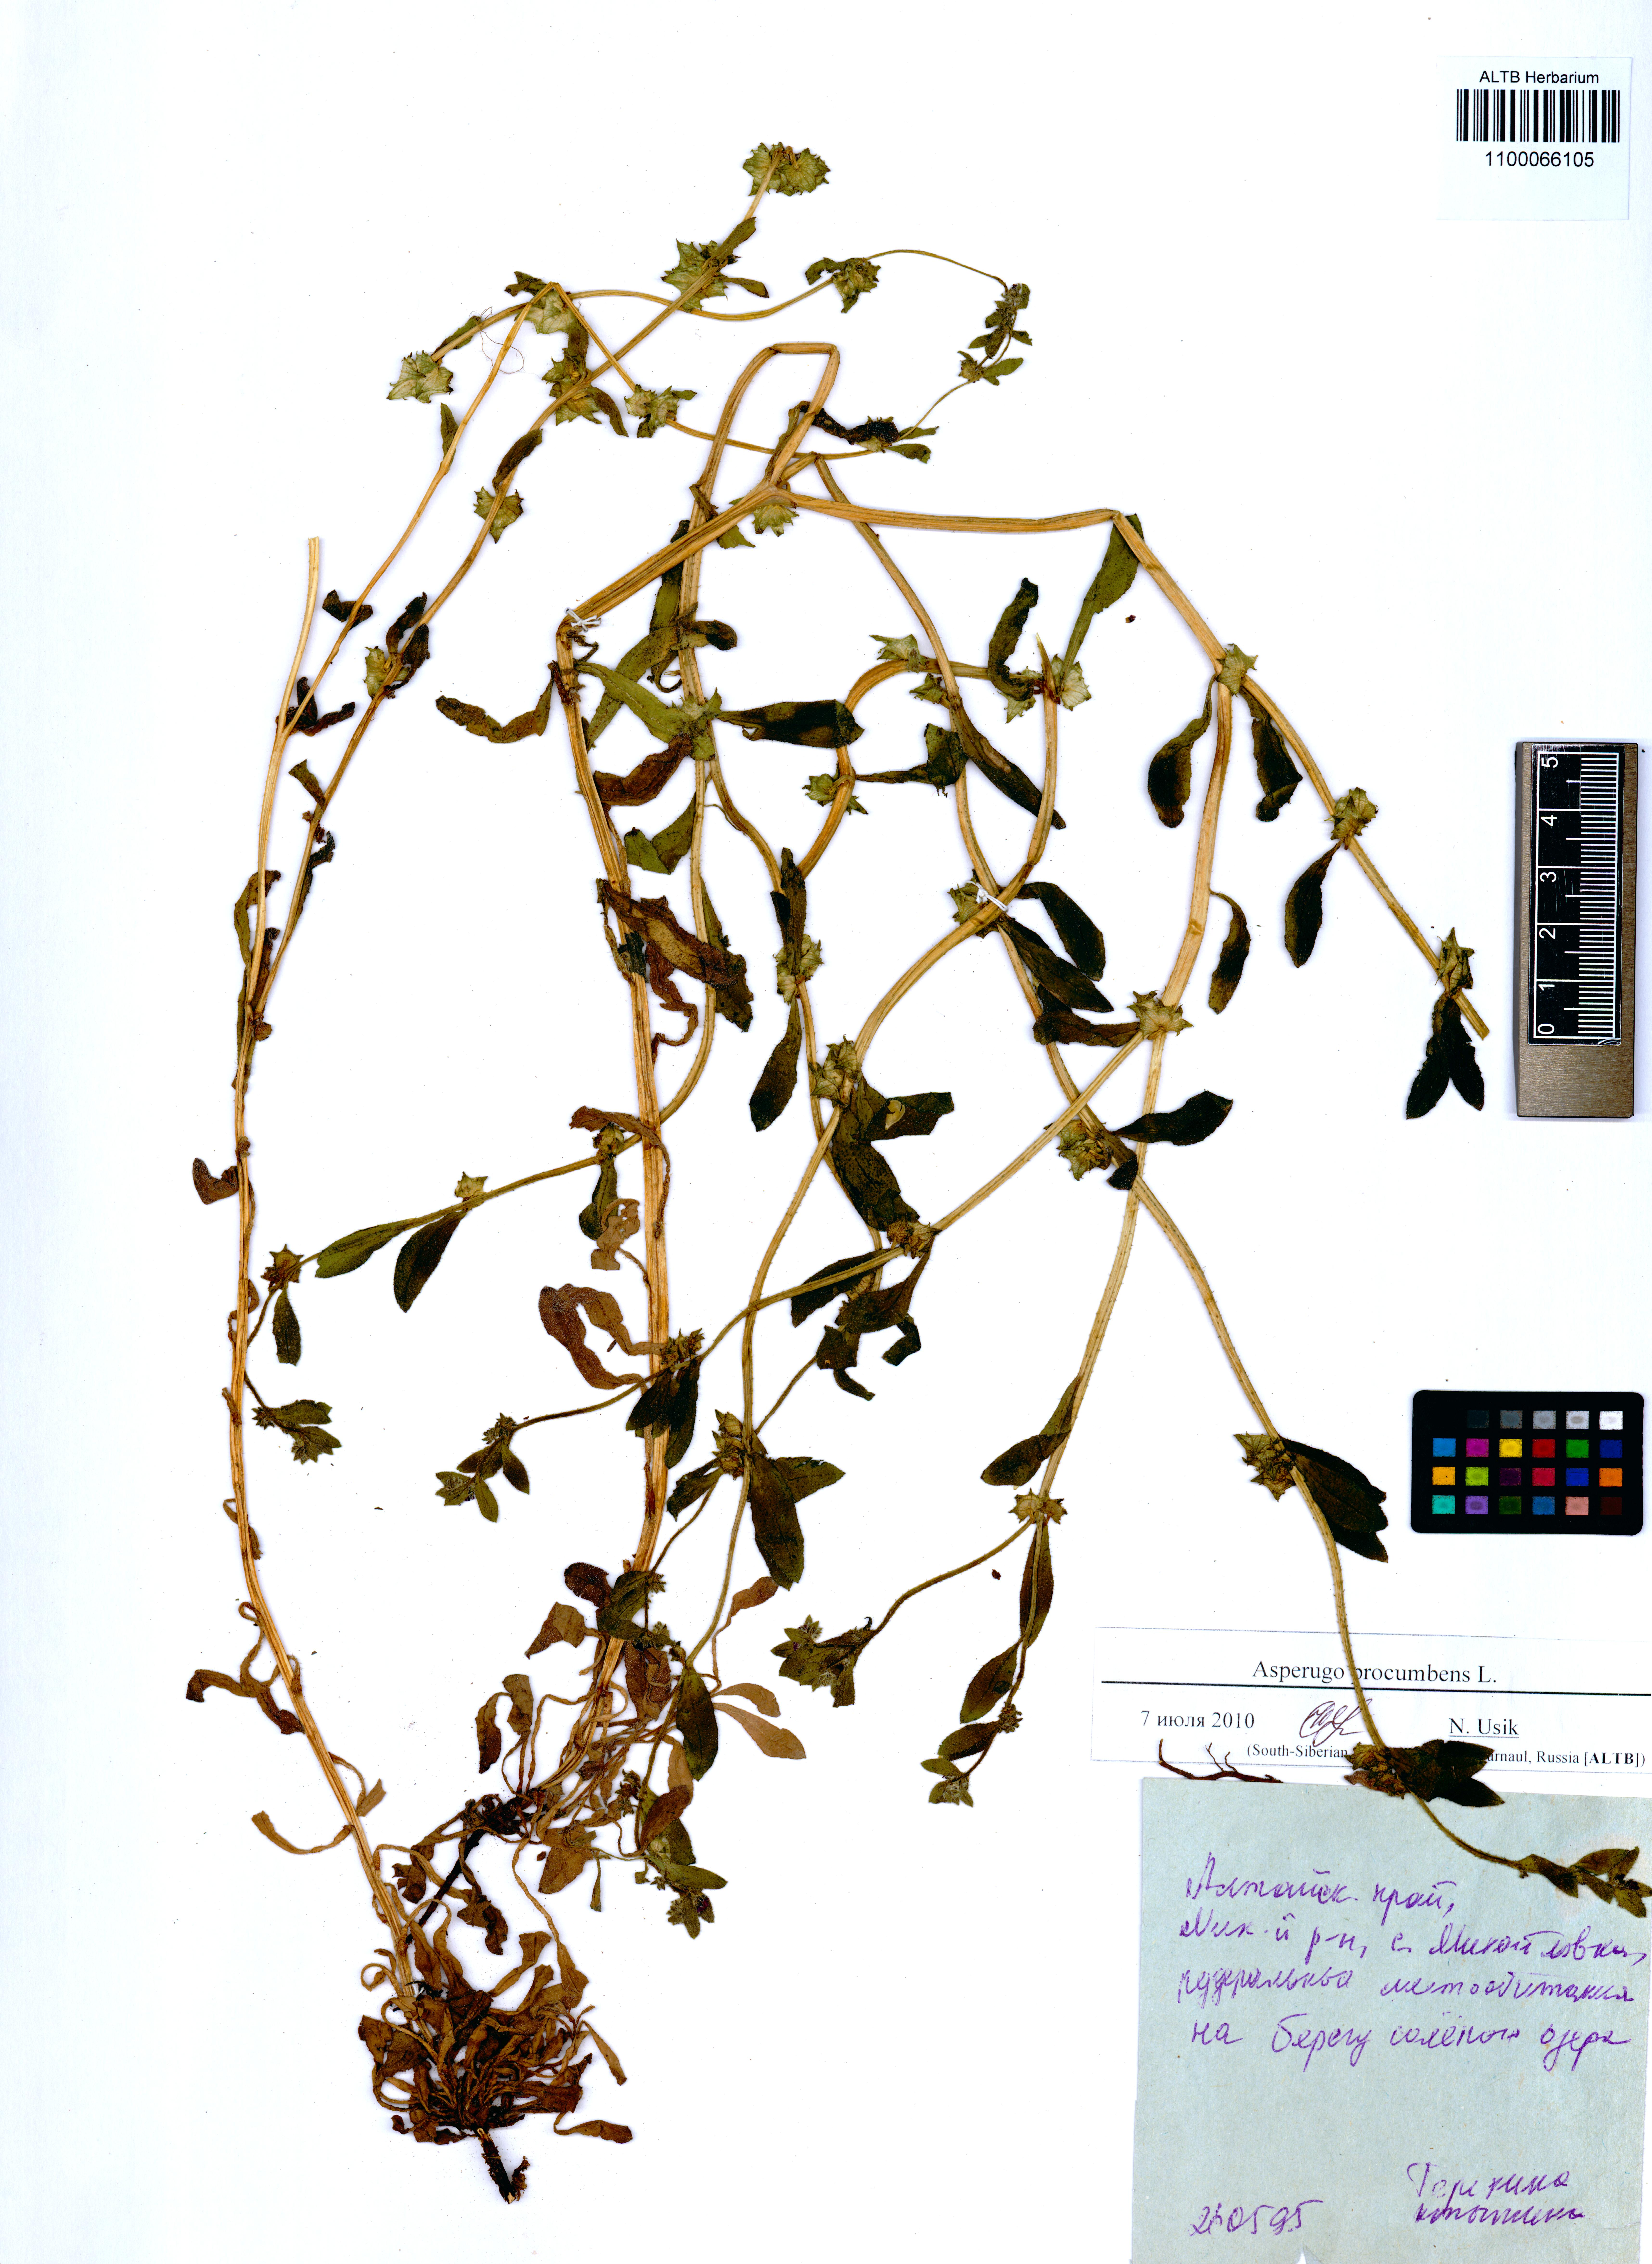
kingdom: Plantae
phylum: Tracheophyta
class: Magnoliopsida
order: Boraginales
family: Boraginaceae
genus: Asperugo
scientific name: Asperugo procumbens
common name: Madwort
